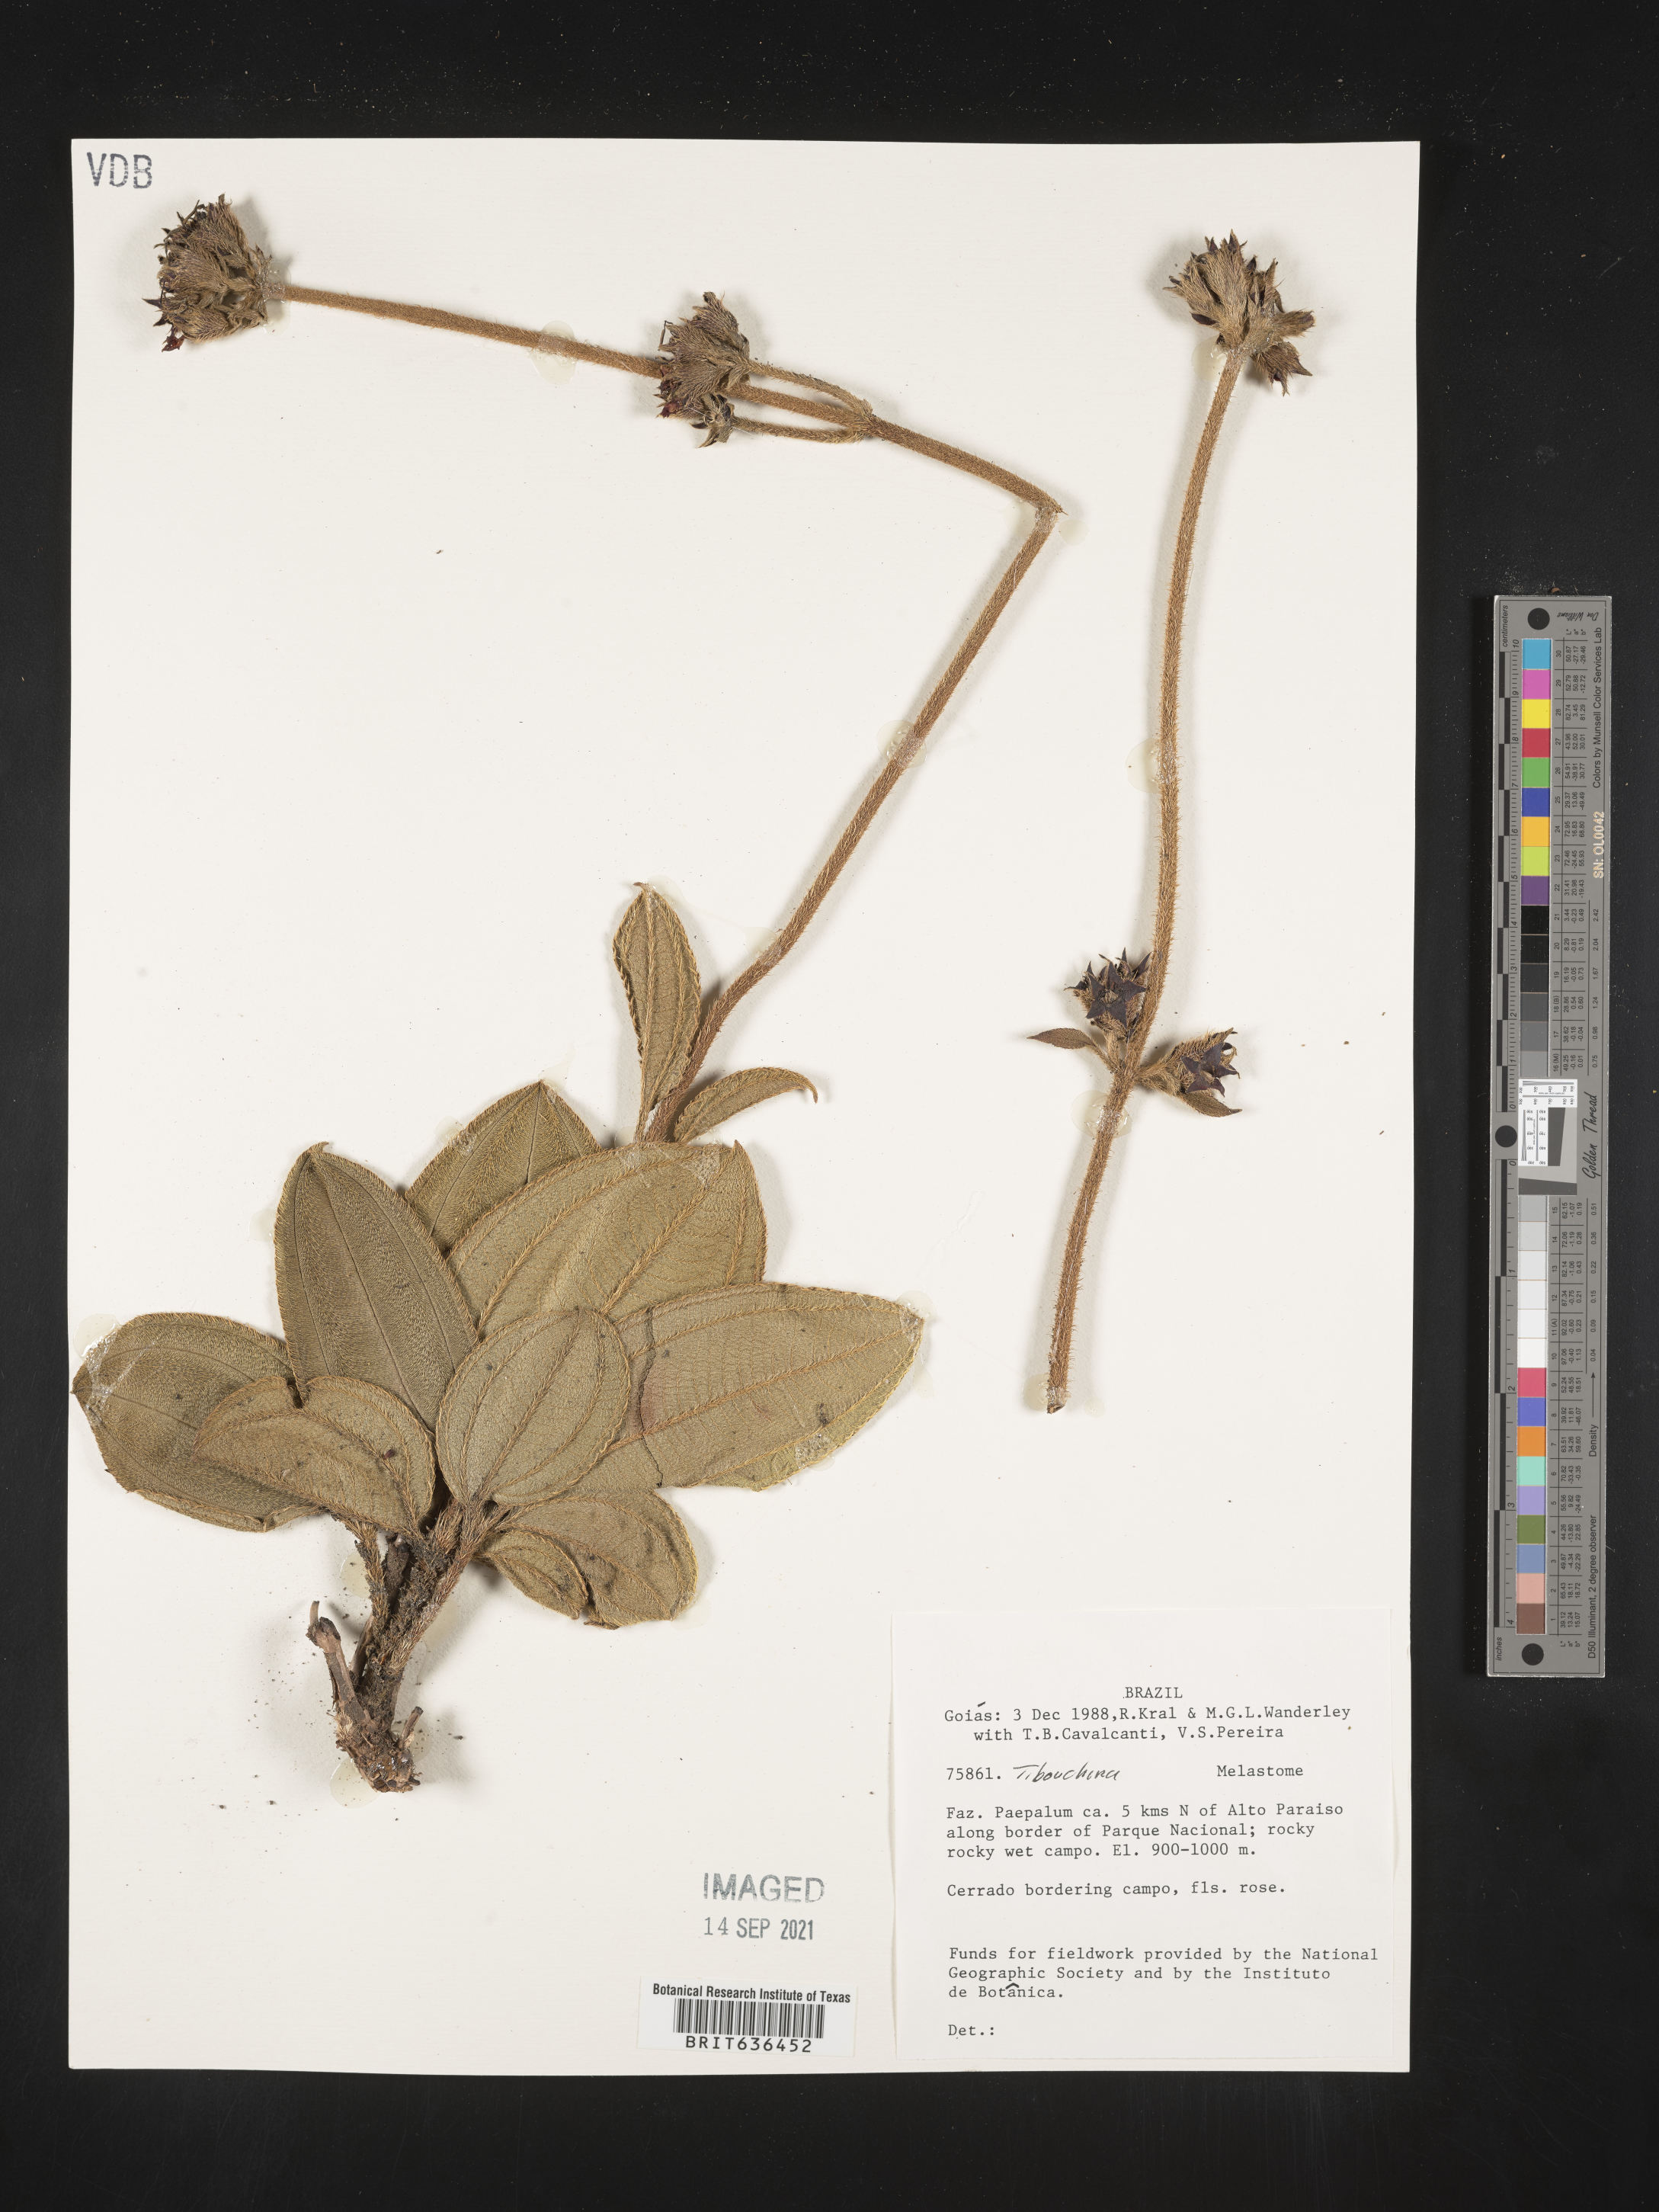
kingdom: Plantae
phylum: Tracheophyta
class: Magnoliopsida
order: Myrtales
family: Melastomataceae
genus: Tibouchina
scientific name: Tibouchina
